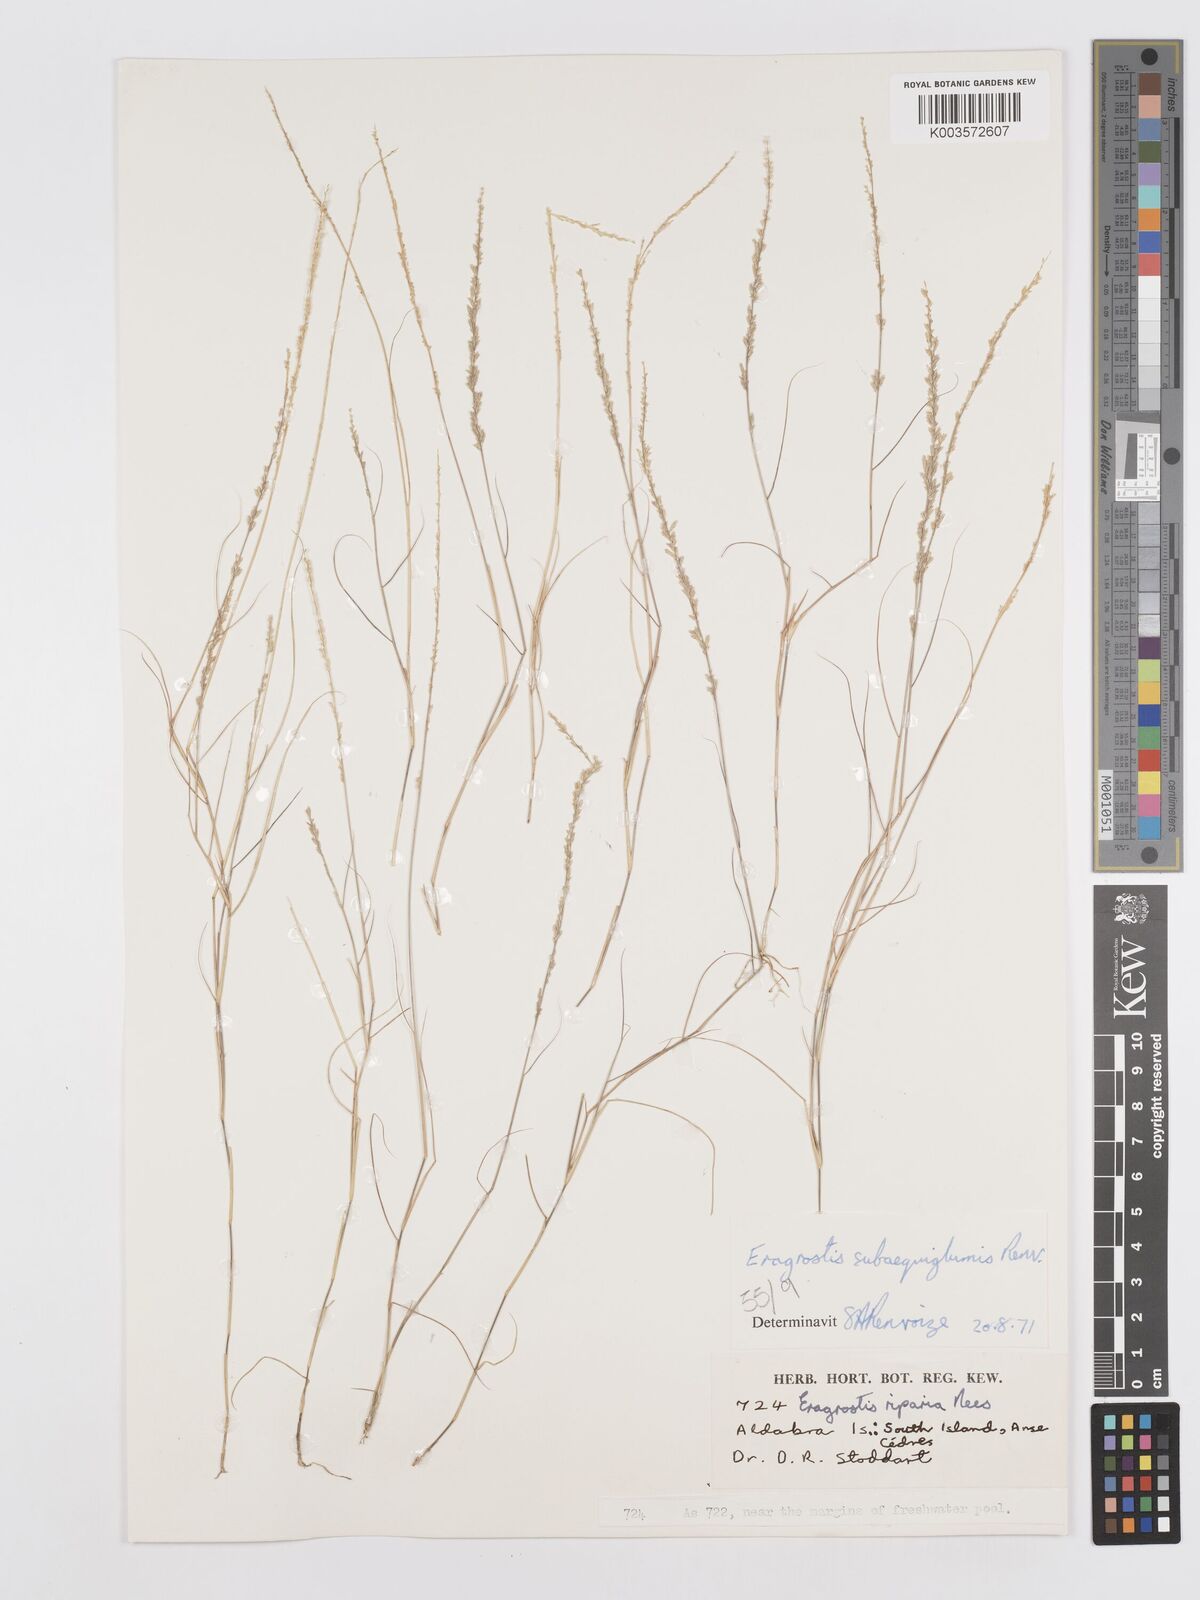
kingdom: Plantae
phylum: Tracheophyta
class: Liliopsida
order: Poales
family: Poaceae
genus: Eragrostis
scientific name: Eragrostis subaequiglumis
